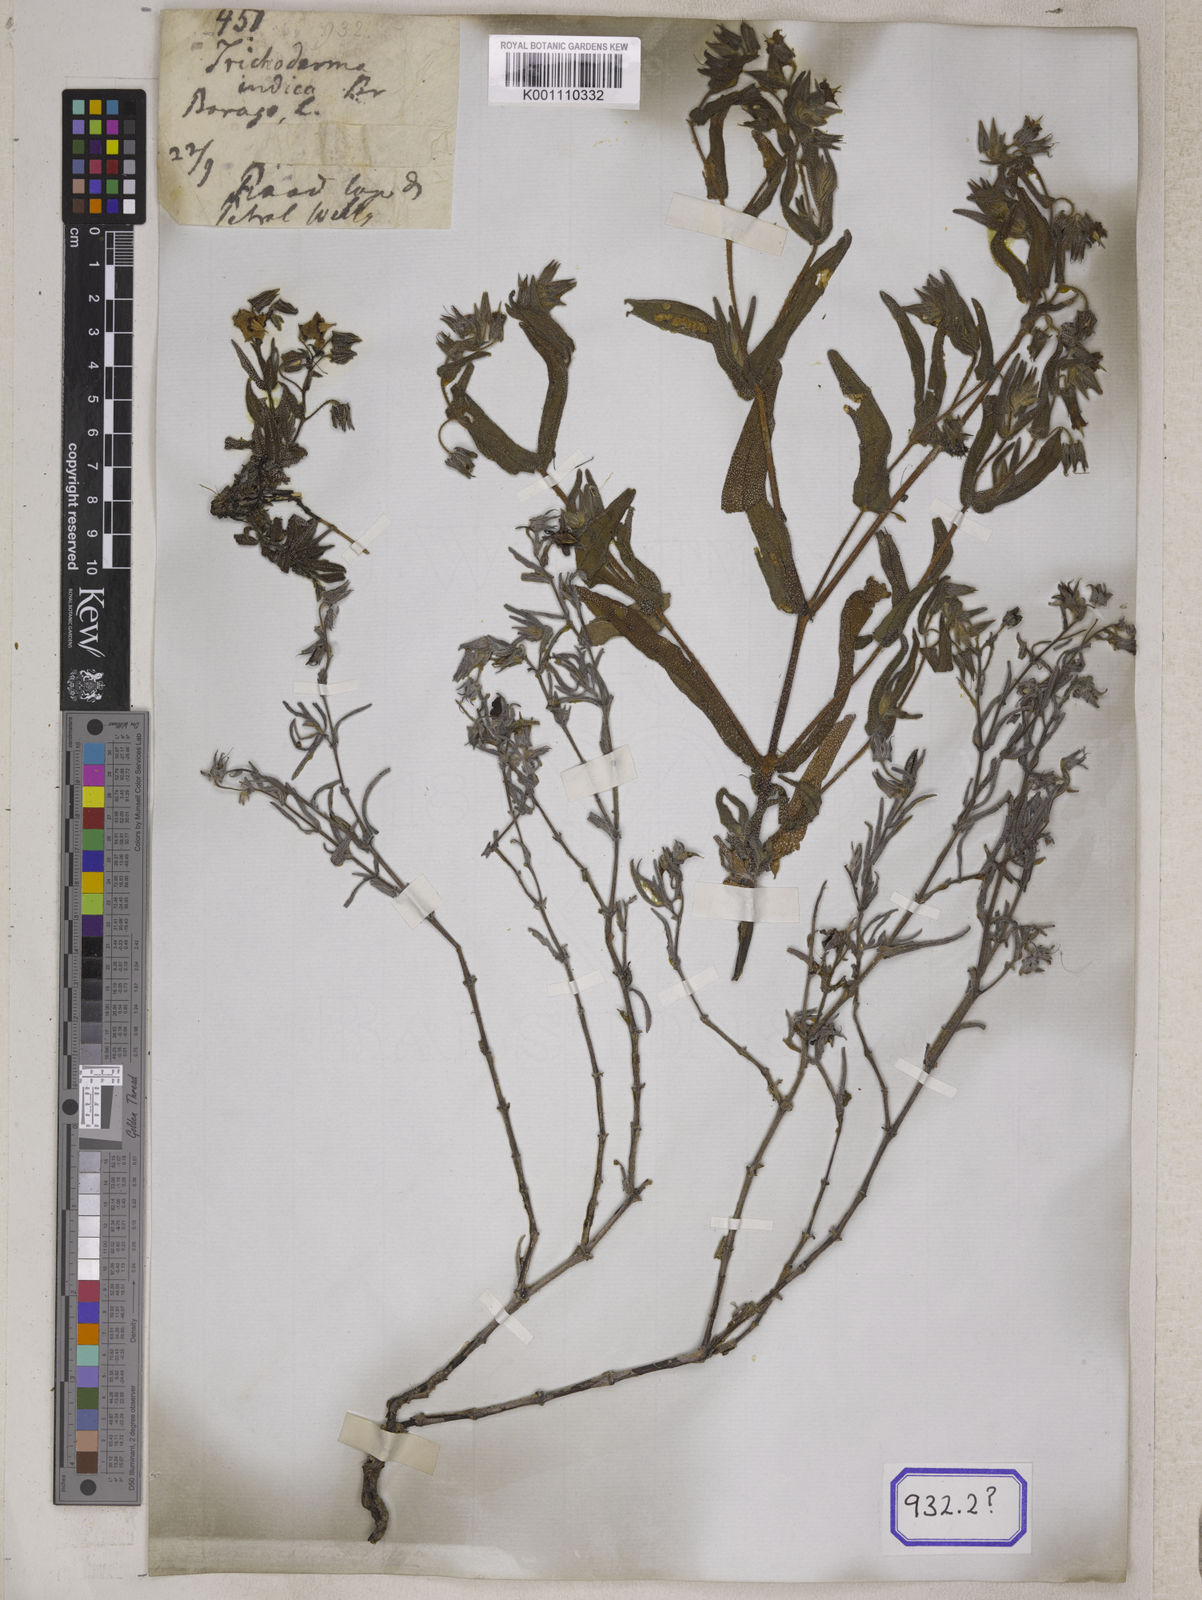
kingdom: Plantae
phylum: Tracheophyta
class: Magnoliopsida
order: Boraginales
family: Boraginaceae
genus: Trichodesma
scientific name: Trichodesma
